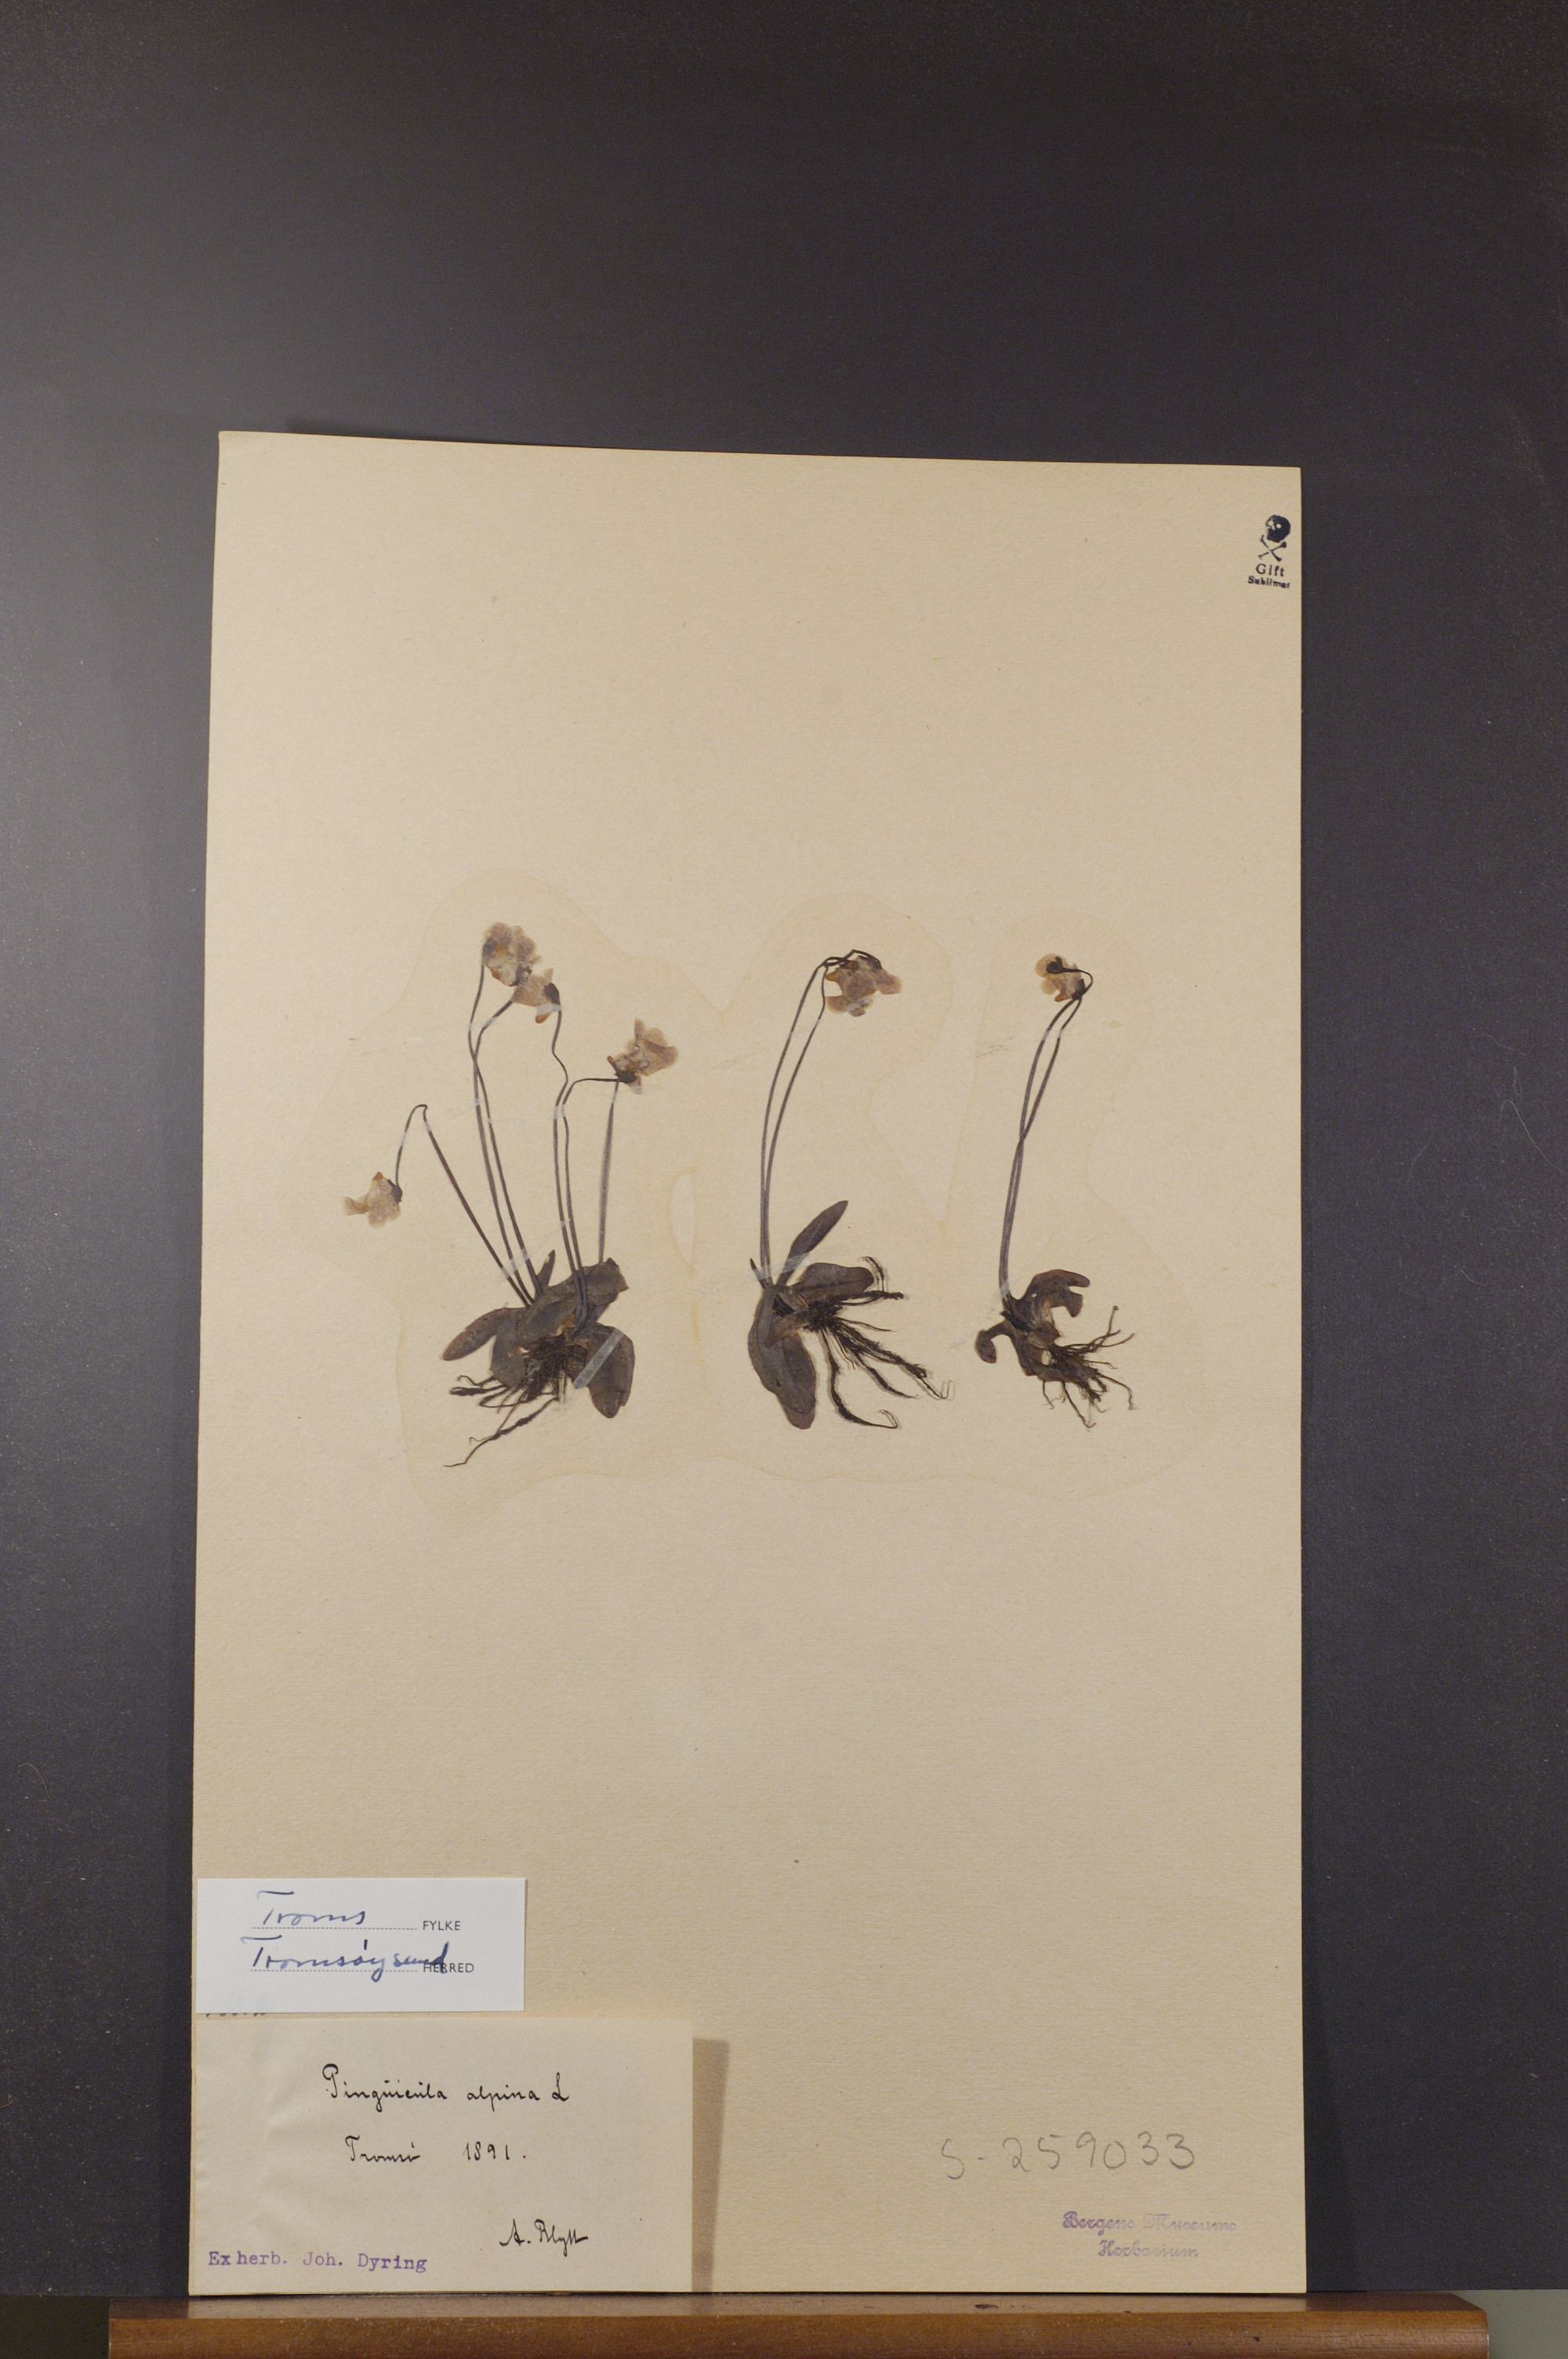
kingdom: Plantae
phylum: Tracheophyta
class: Magnoliopsida
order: Lamiales
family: Lentibulariaceae
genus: Pinguicula
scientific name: Pinguicula alpina
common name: Alpine butterwort
